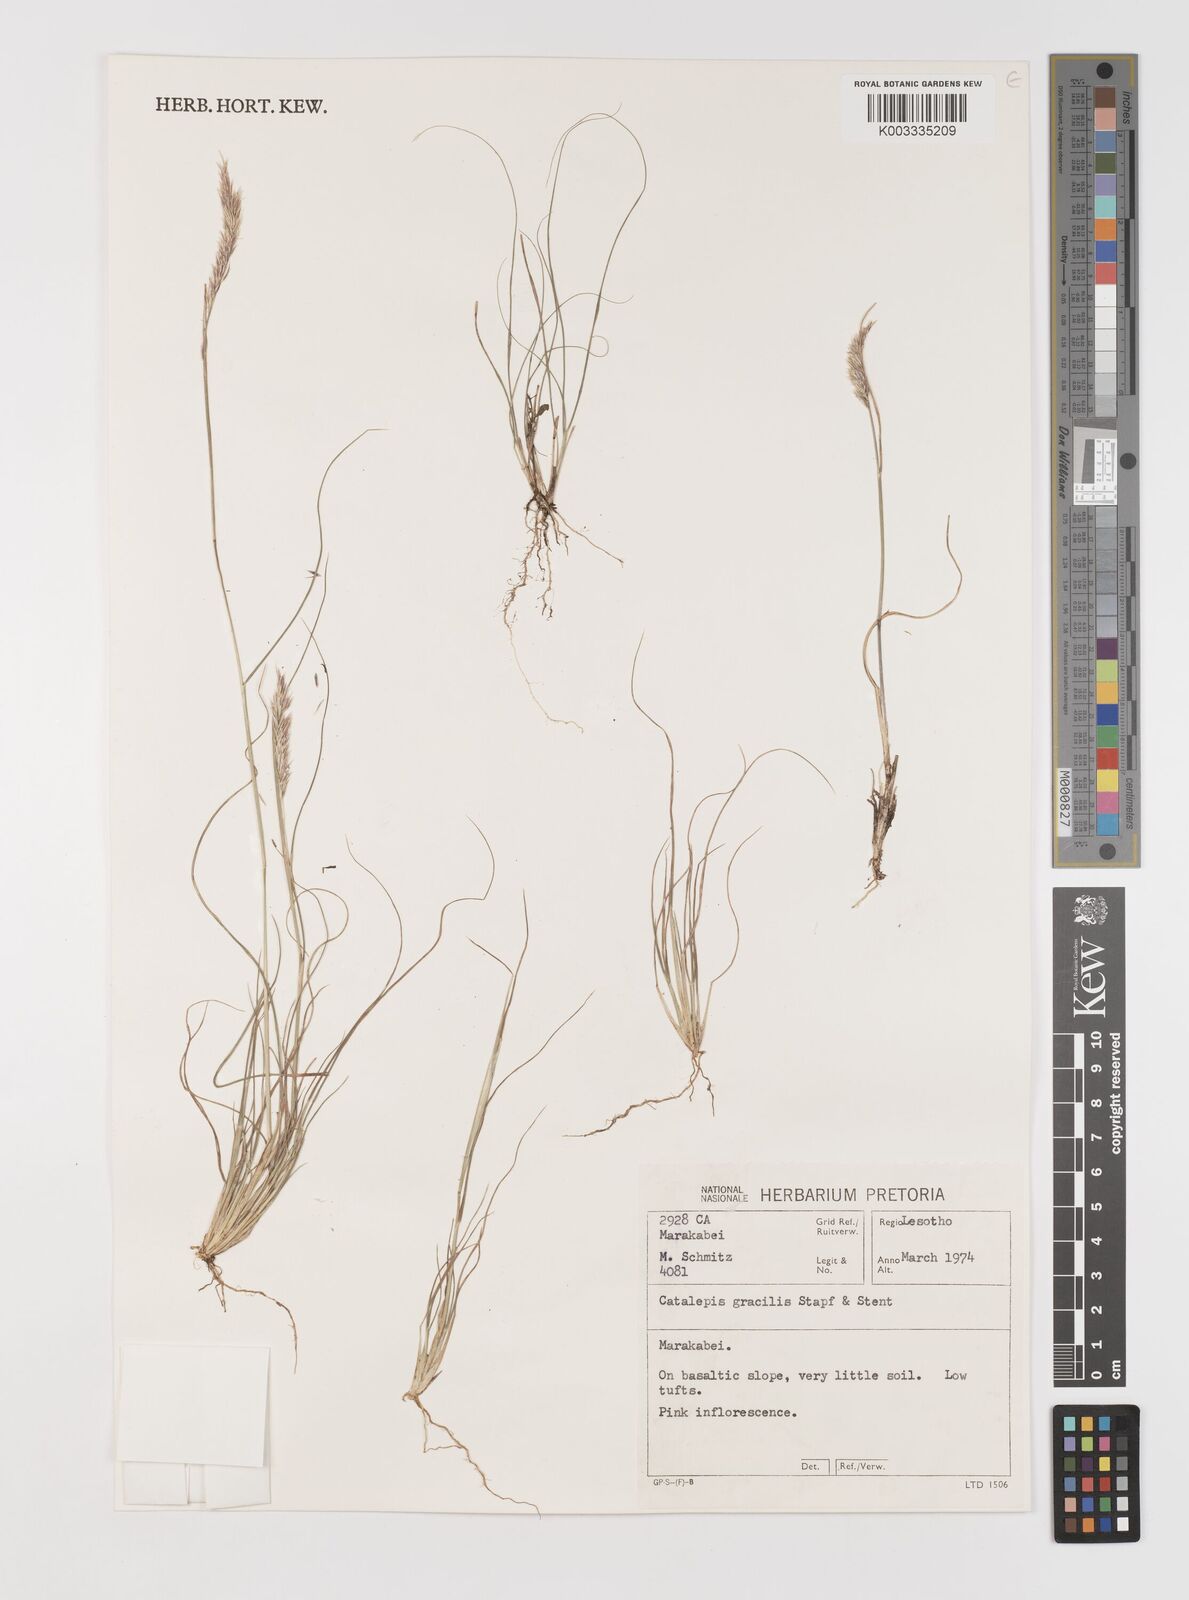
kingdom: Plantae
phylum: Tracheophyta
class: Liliopsida
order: Poales
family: Poaceae
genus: Catalepis
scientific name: Catalepis gracilis
